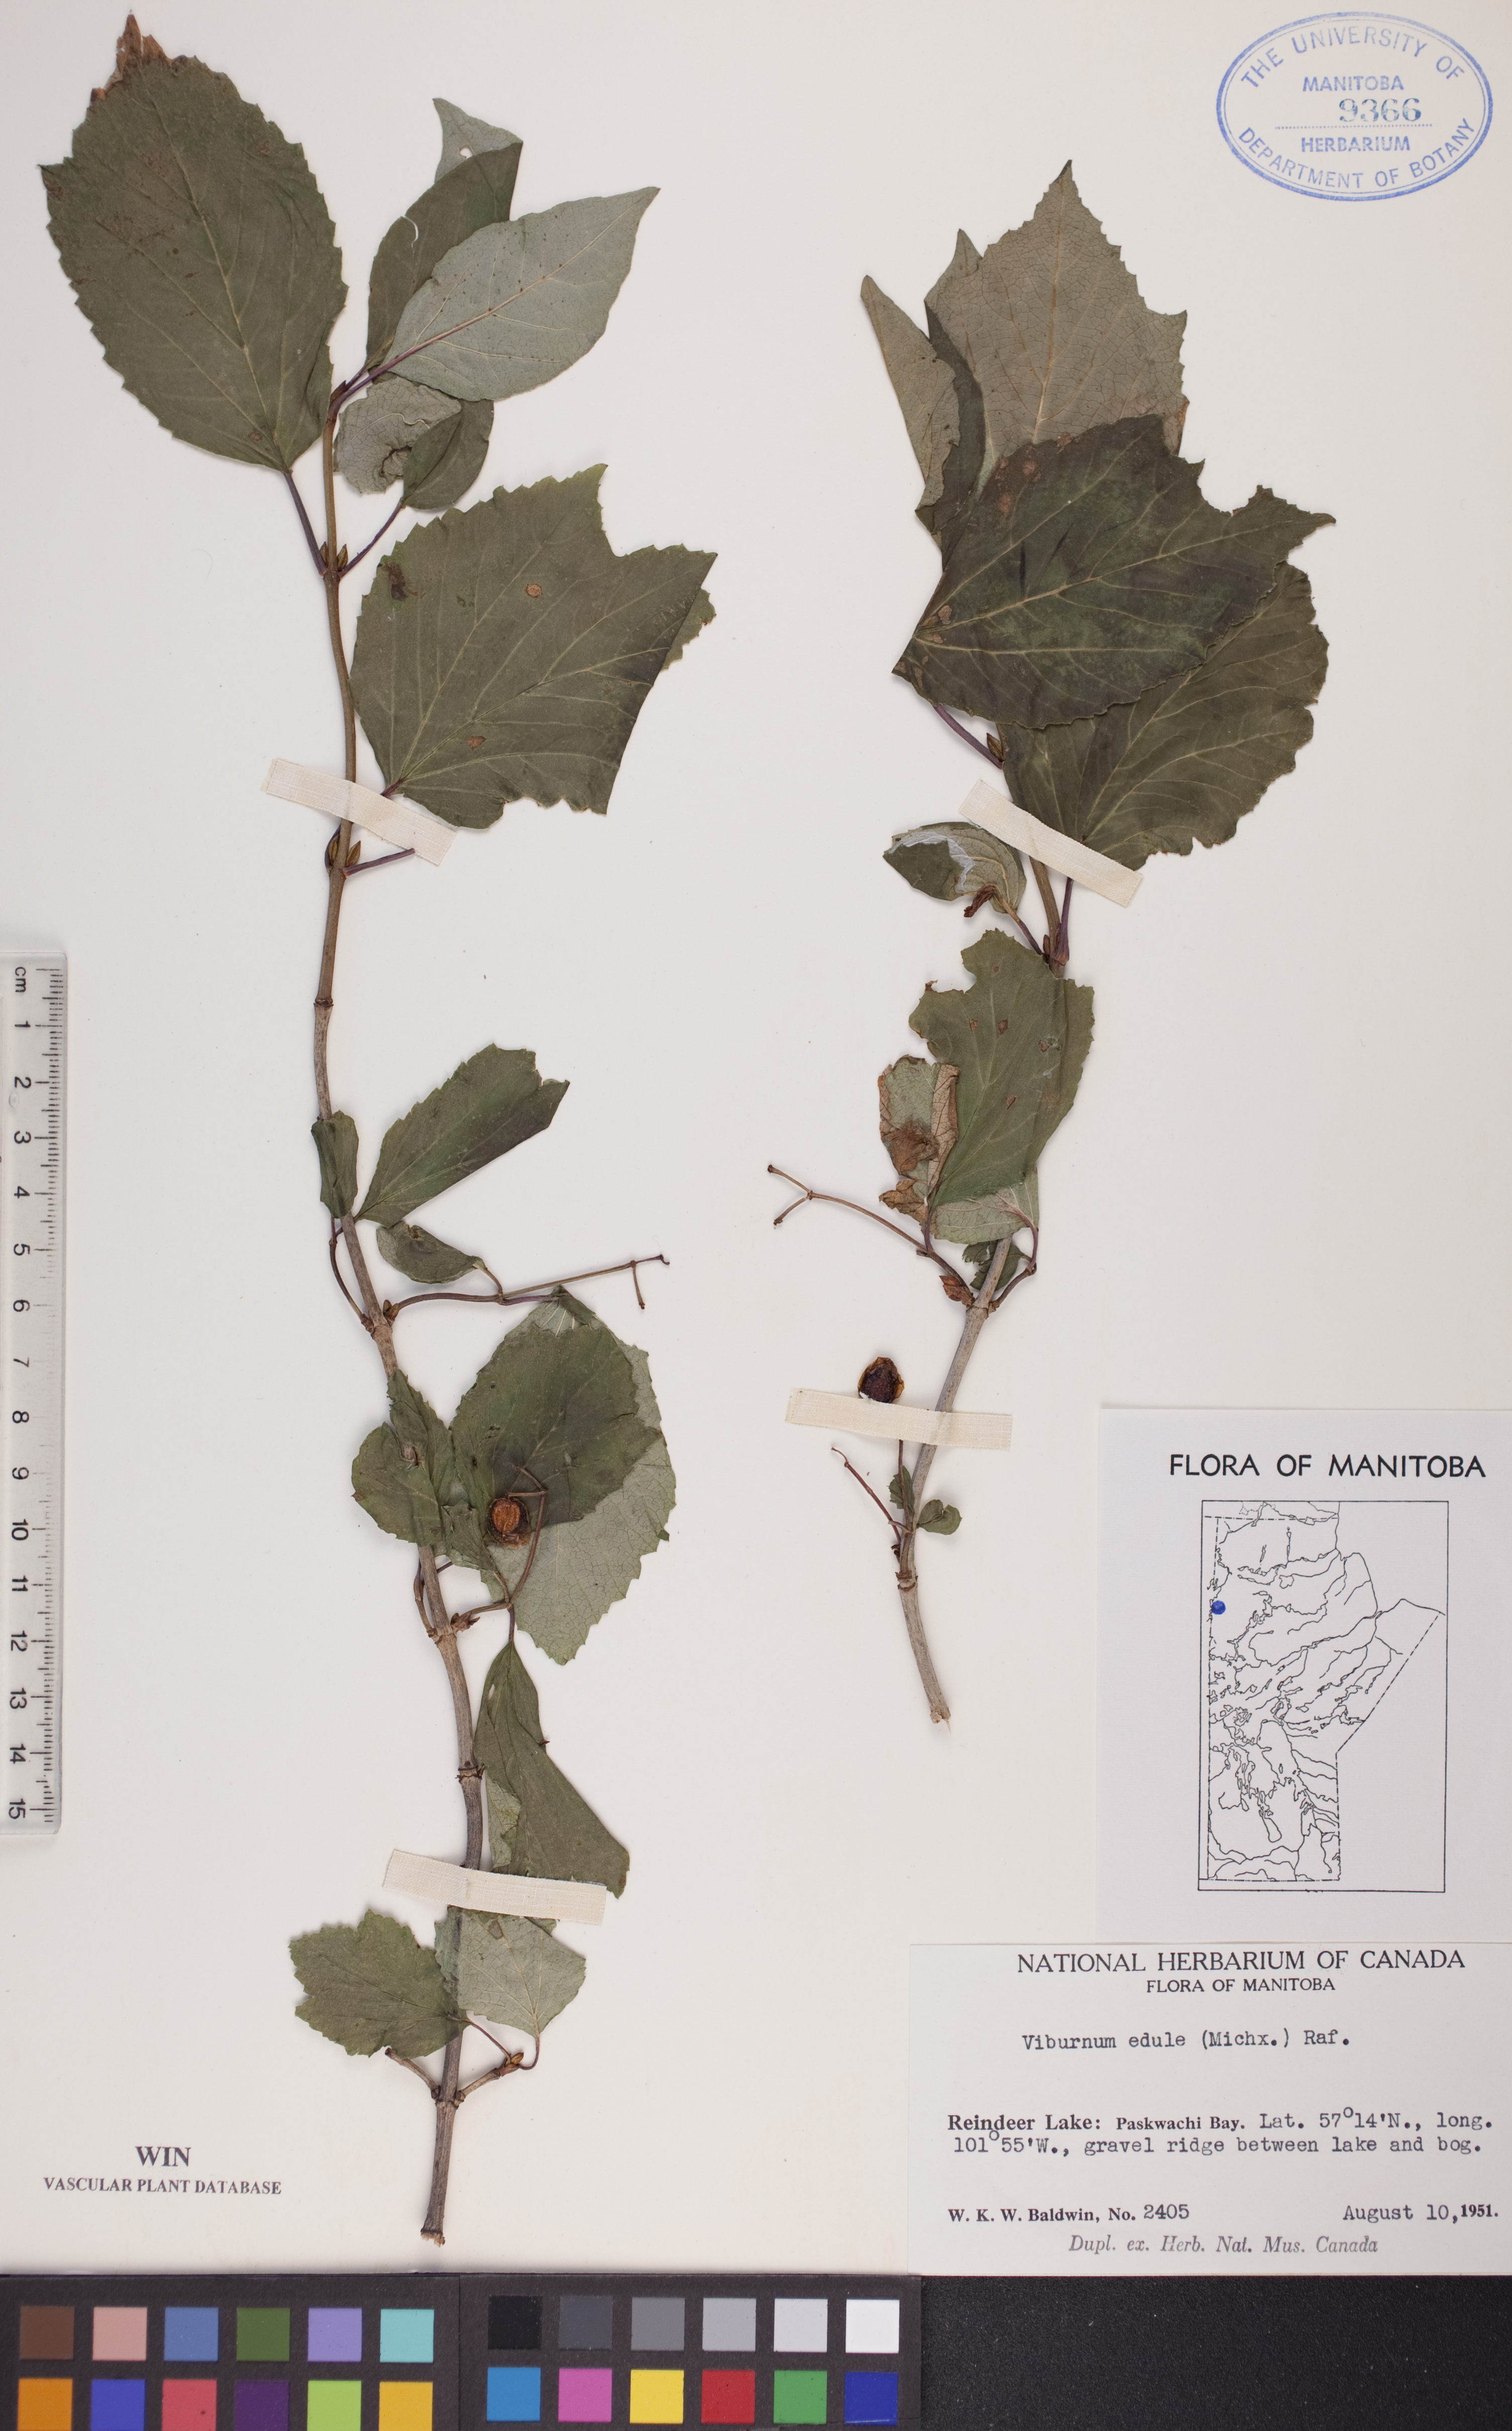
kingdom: Plantae
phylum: Tracheophyta
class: Magnoliopsida
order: Dipsacales
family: Viburnaceae
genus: Viburnum
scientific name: Viburnum edule
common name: Mooseberry
